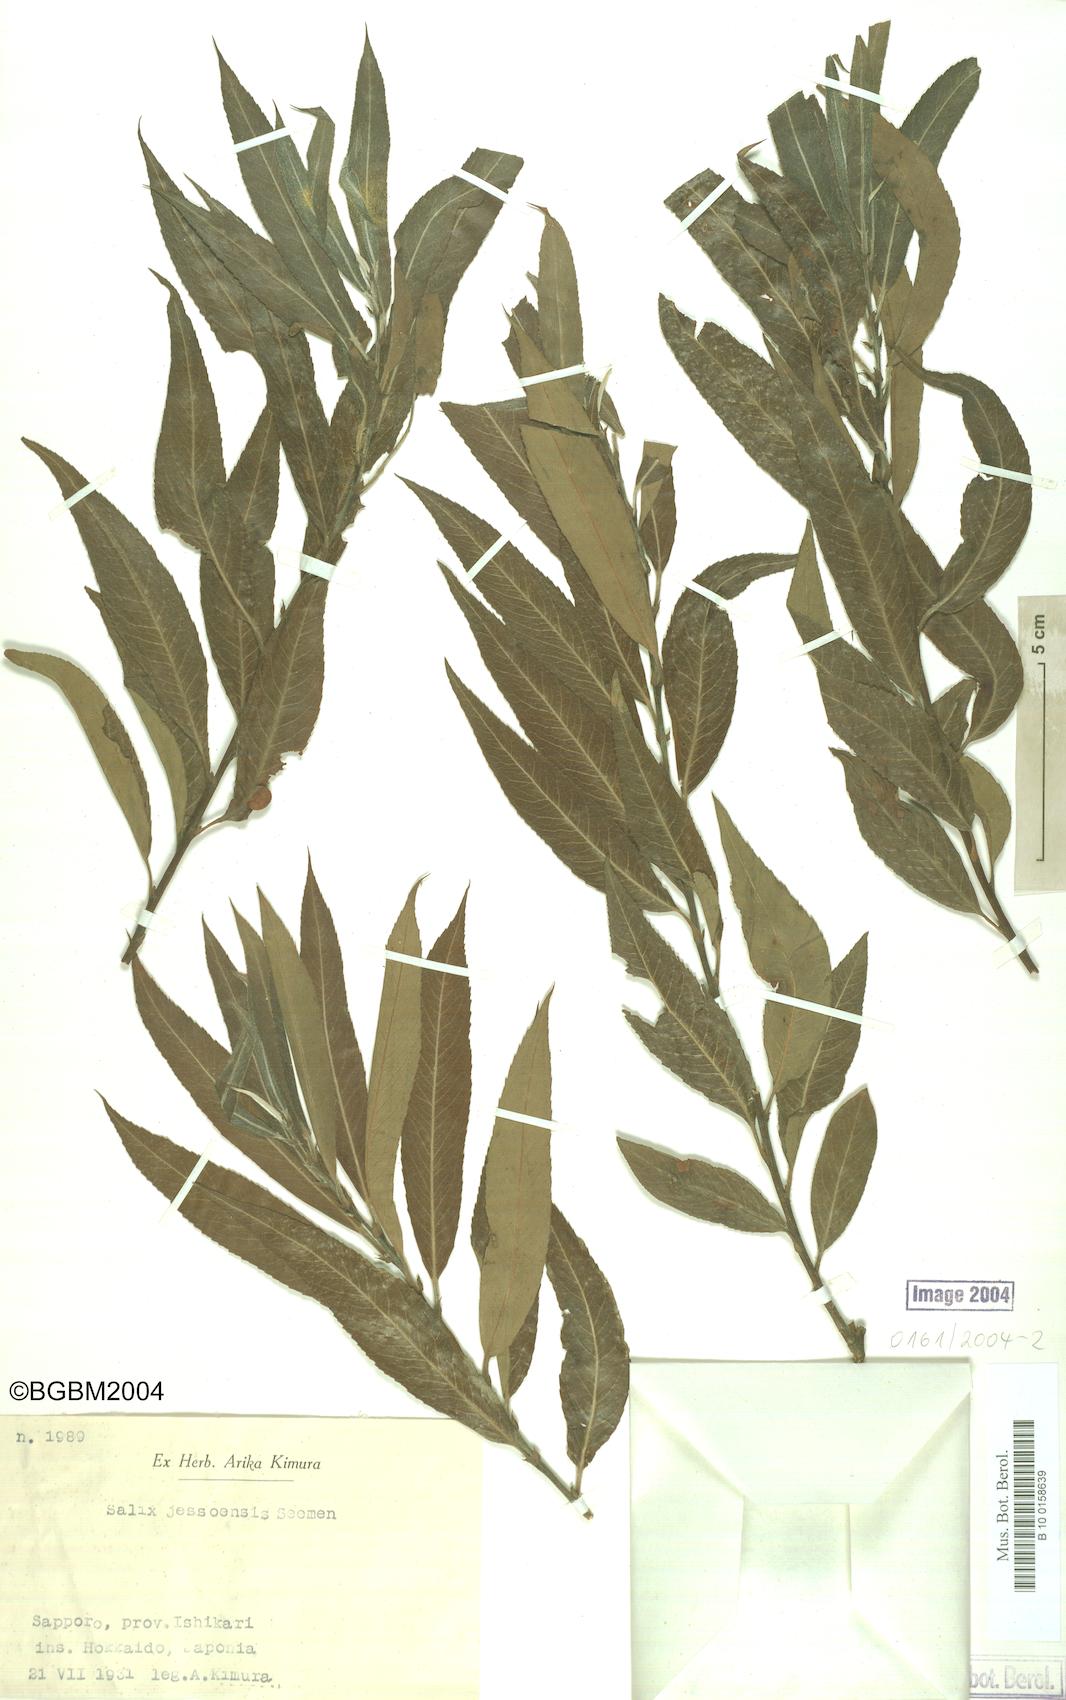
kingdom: Plantae
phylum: Tracheophyta
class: Magnoliopsida
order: Malpighiales
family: Salicaceae
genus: Salix
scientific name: Salix jessoensis
